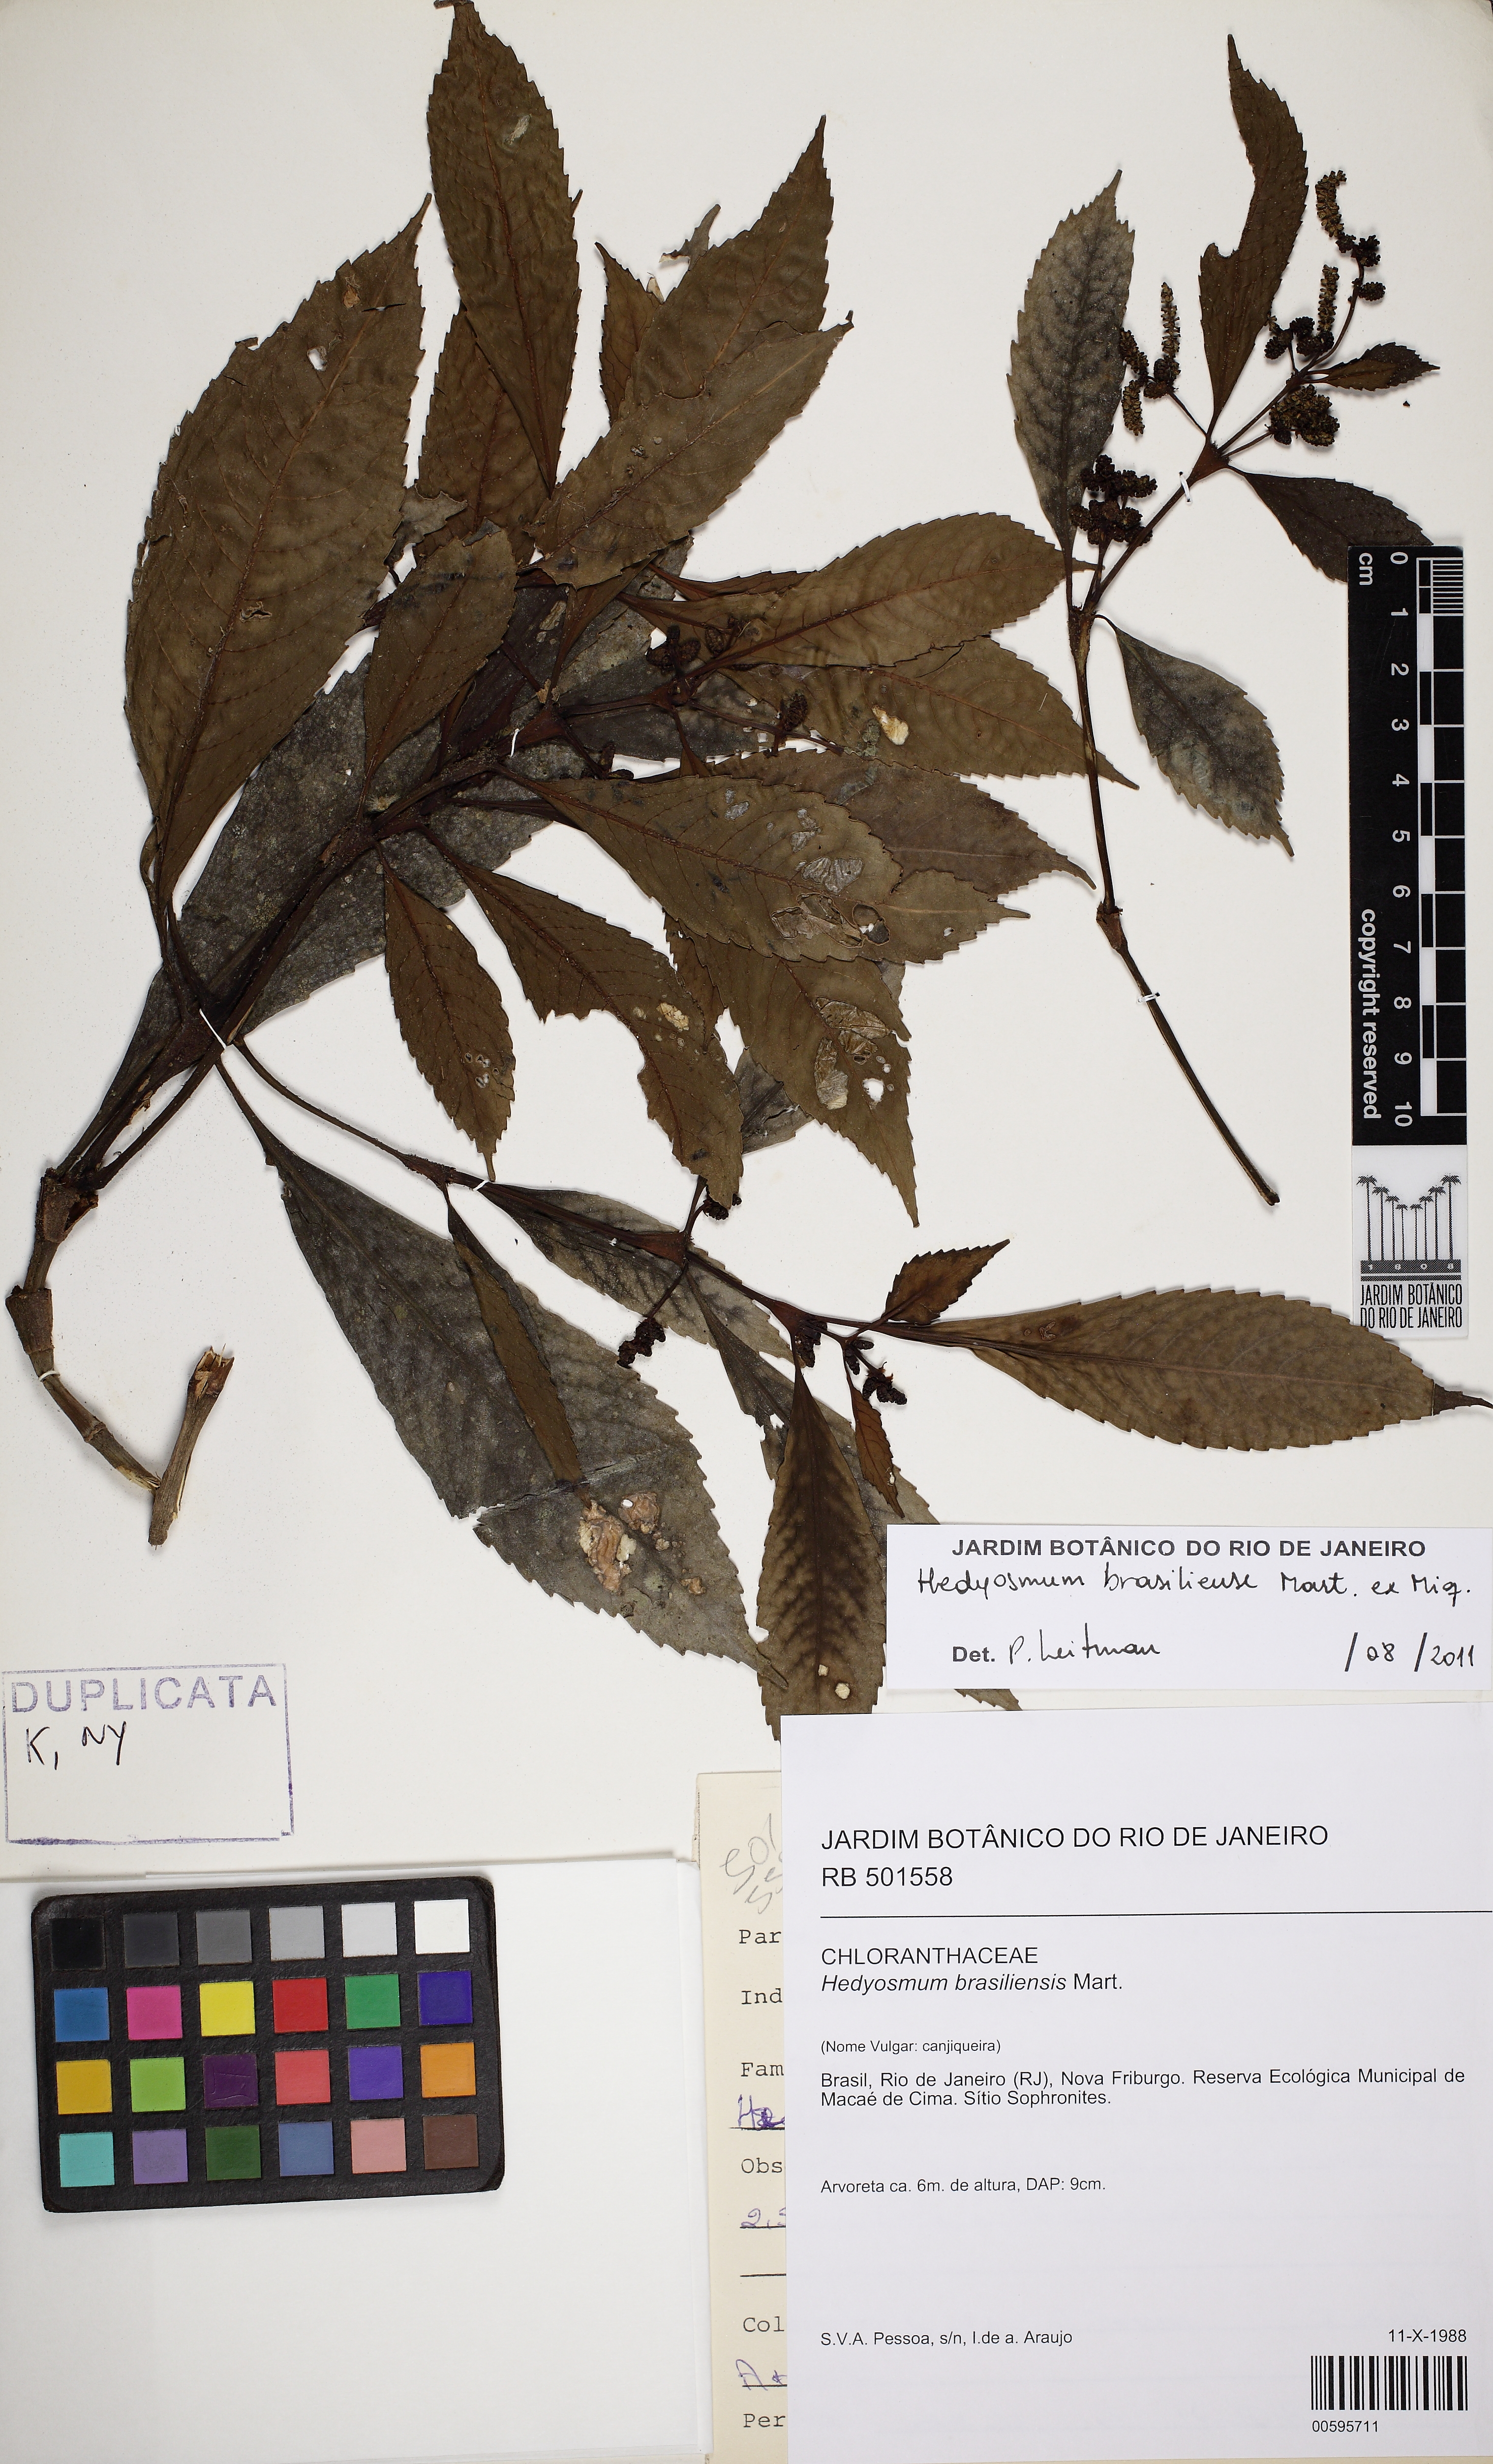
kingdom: Plantae
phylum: Tracheophyta
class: Magnoliopsida
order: Chloranthales
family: Chloranthaceae
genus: Hedyosmum
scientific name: Hedyosmum brasiliense
